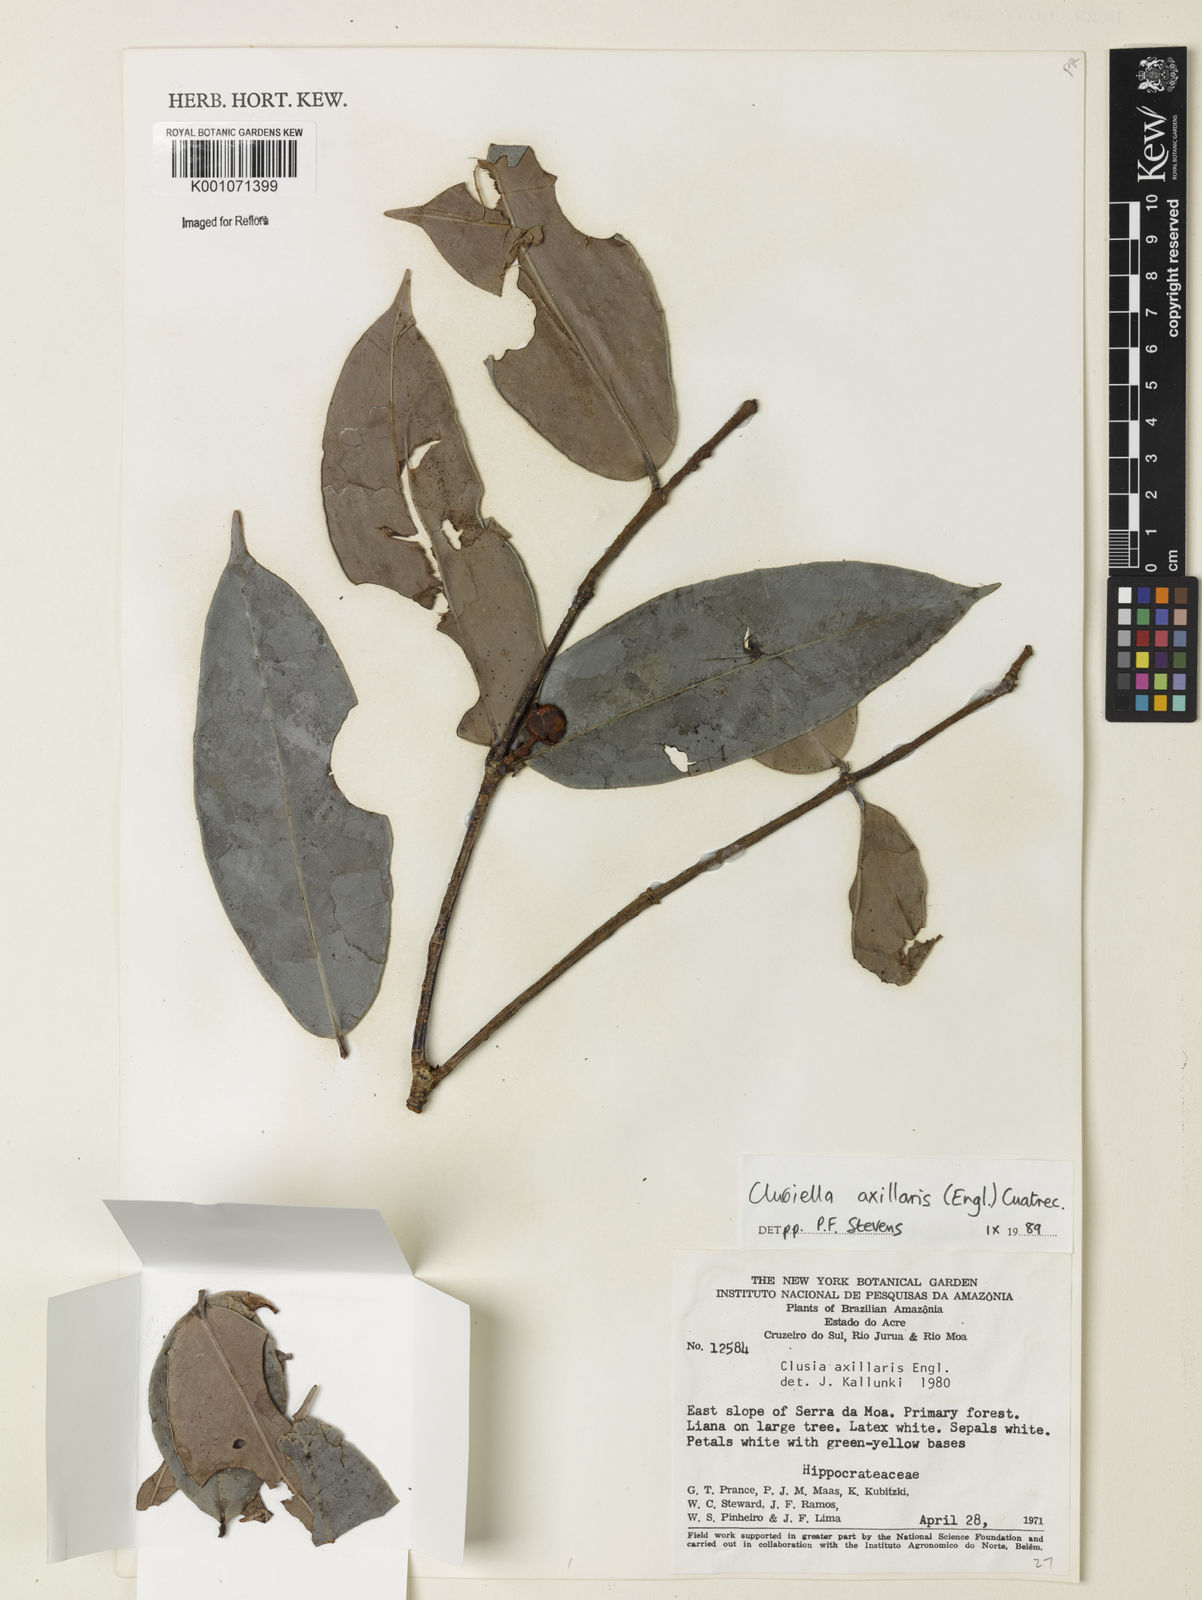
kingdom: Plantae
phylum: Tracheophyta
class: Magnoliopsida
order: Malpighiales
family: Calophyllaceae
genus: Clusiella
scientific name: Clusiella axillaris
